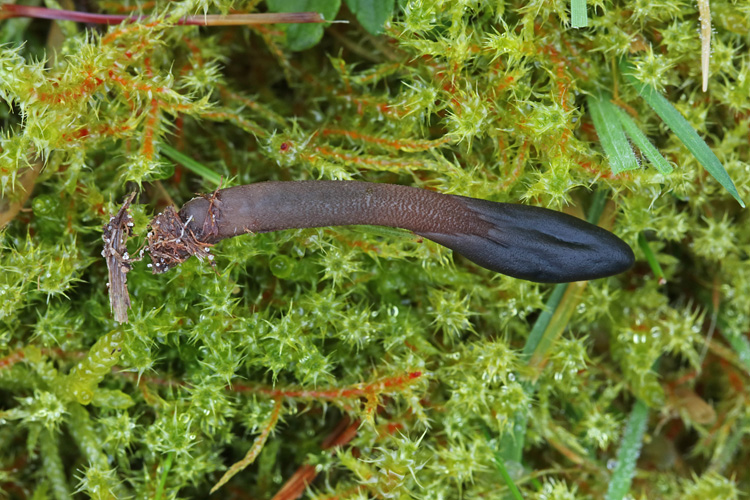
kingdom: Fungi
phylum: Ascomycota
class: Geoglossomycetes
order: Geoglossales
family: Geoglossaceae
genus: Geoglossum
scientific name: Geoglossum fallax
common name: småskællet jordtunge
